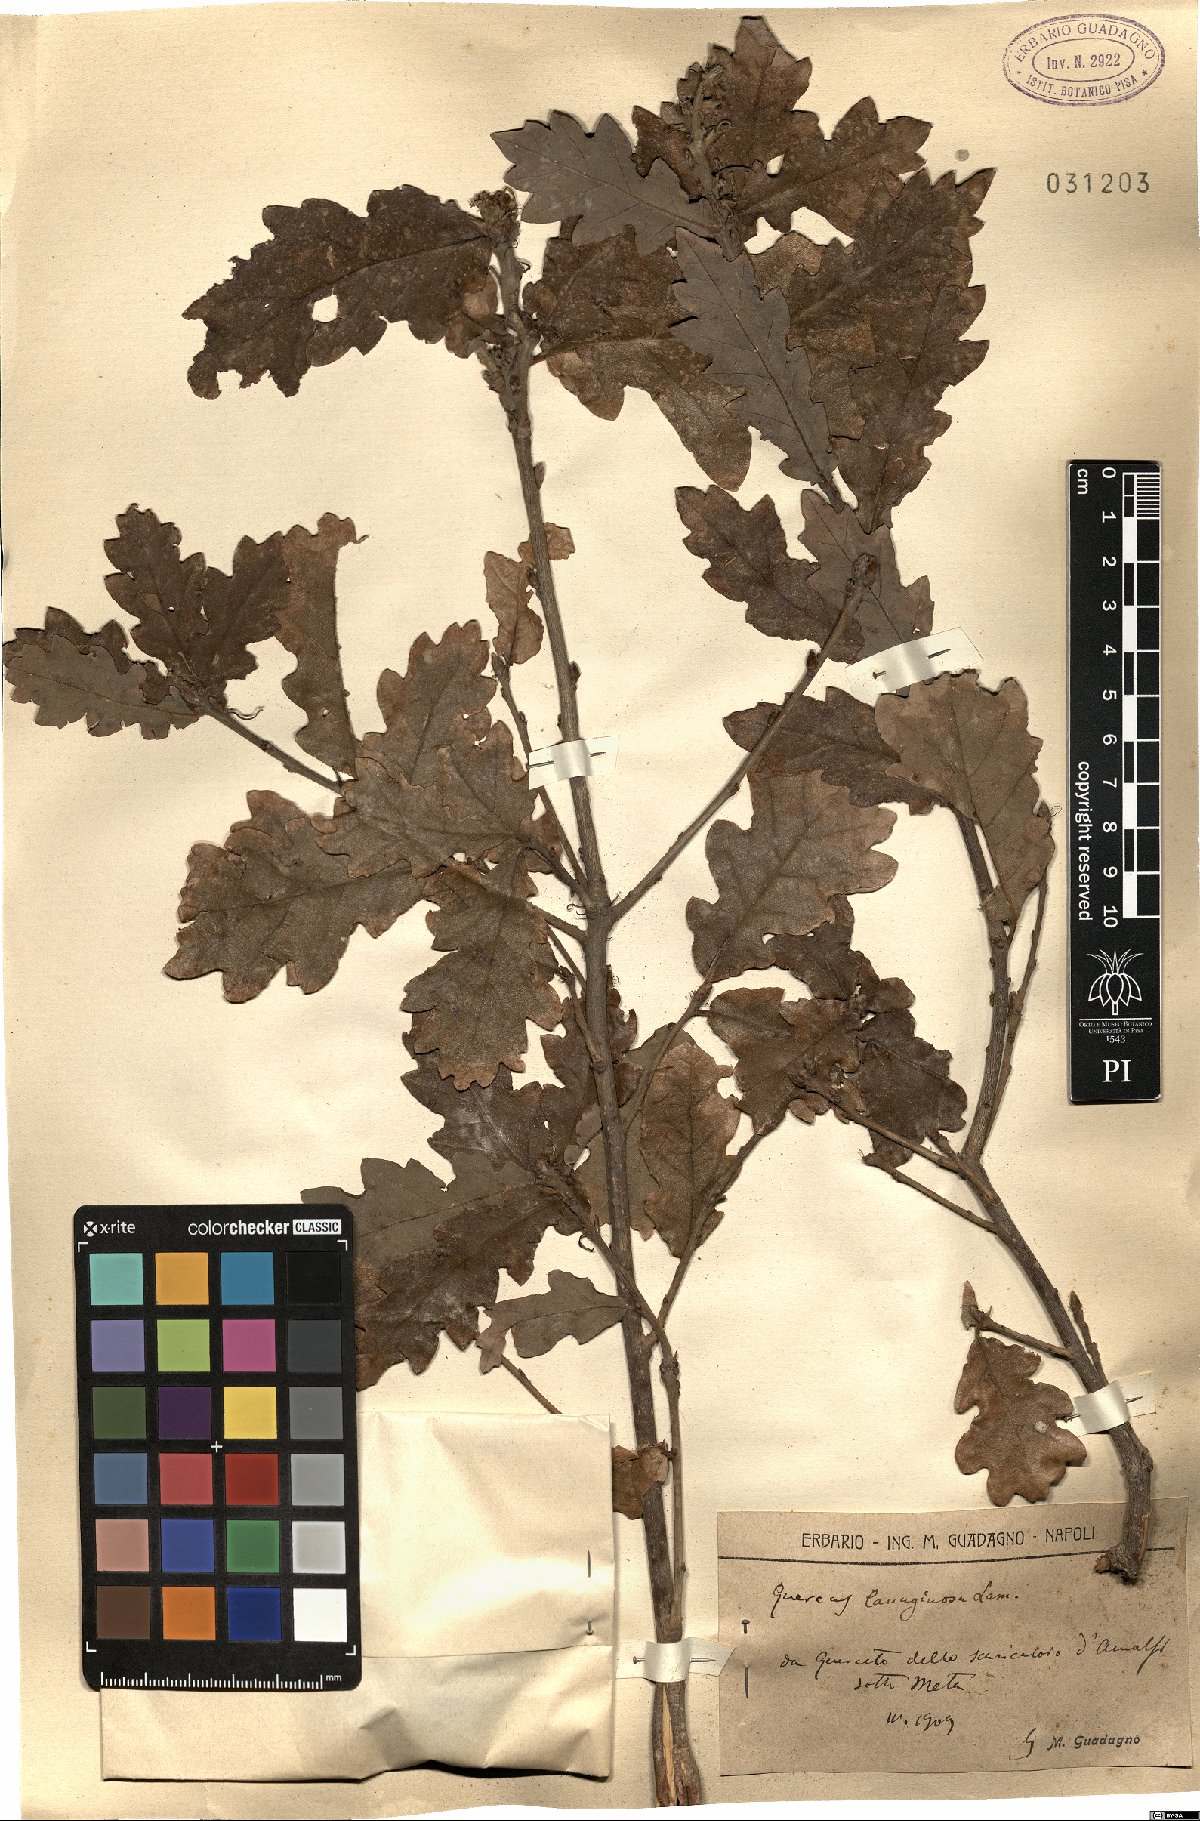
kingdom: Plantae
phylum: Tracheophyta
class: Magnoliopsida
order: Fagales
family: Fagaceae
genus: Quercus
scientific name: Quercus cerris
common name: Turkey oak
